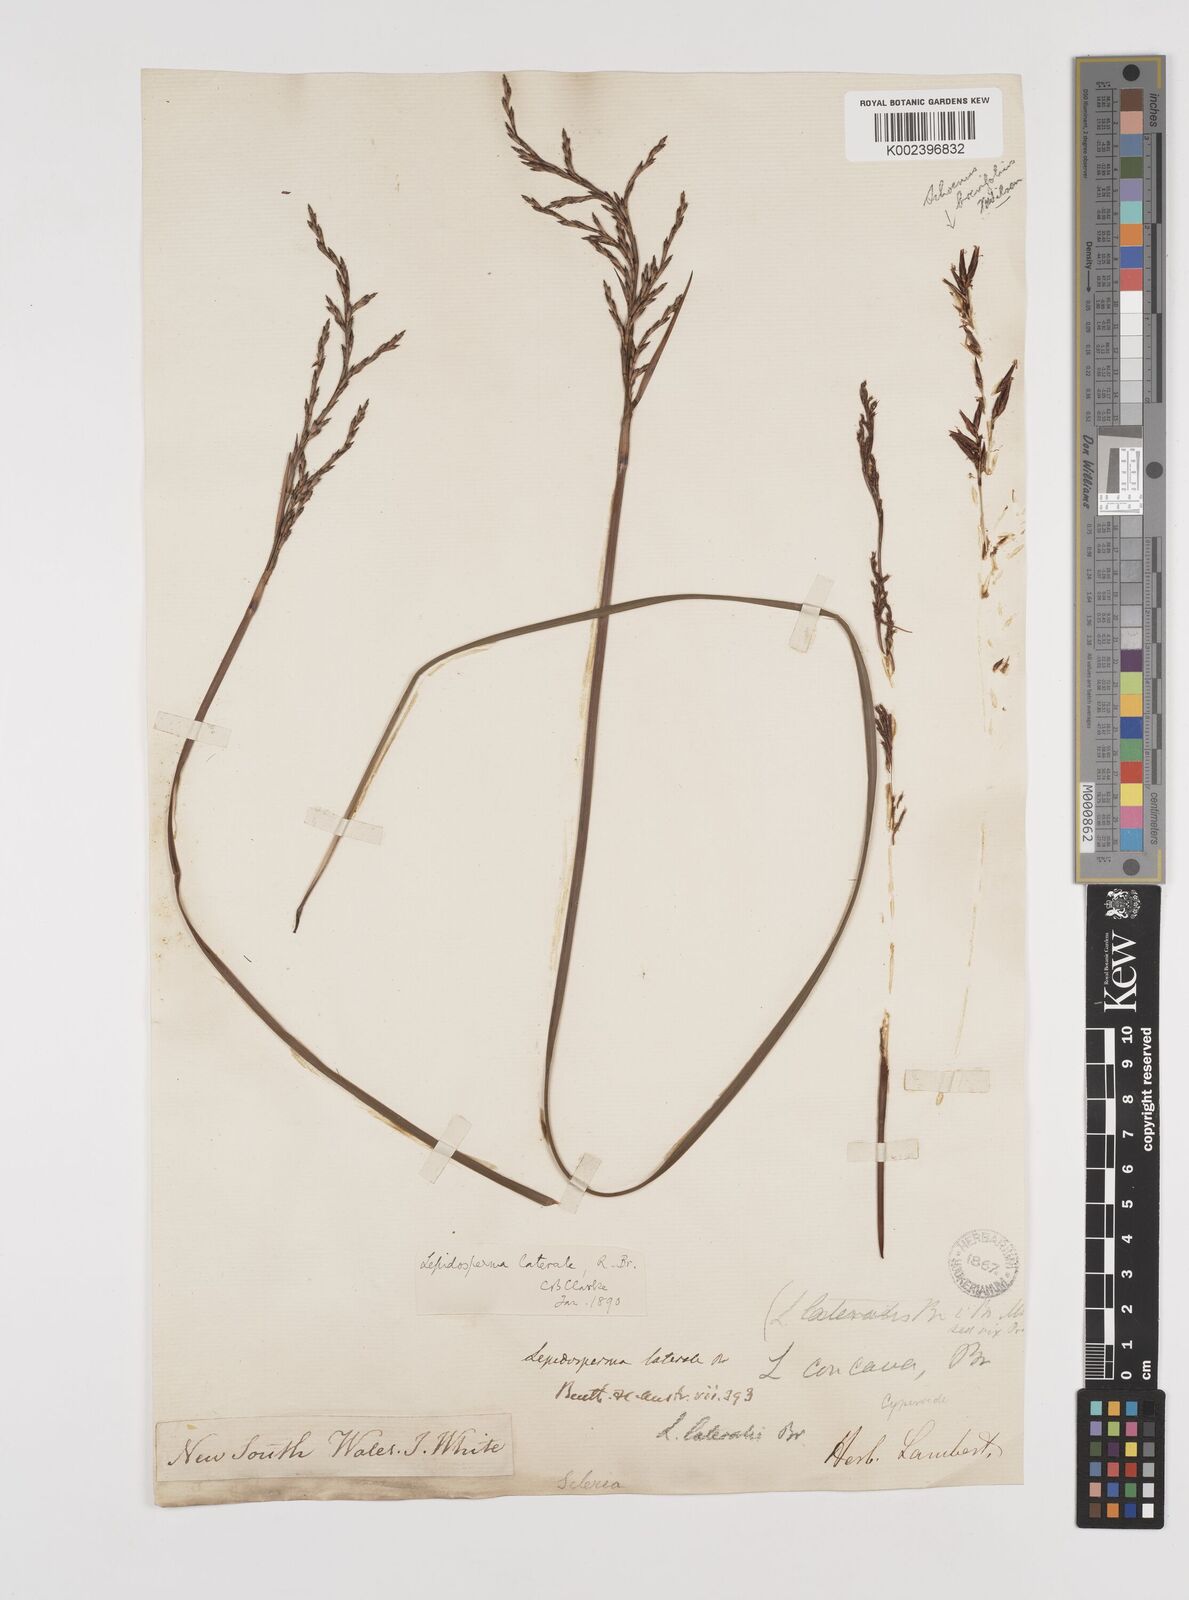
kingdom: Plantae
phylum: Tracheophyta
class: Liliopsida
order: Poales
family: Cyperaceae
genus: Lepidosperma
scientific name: Lepidosperma laterale
